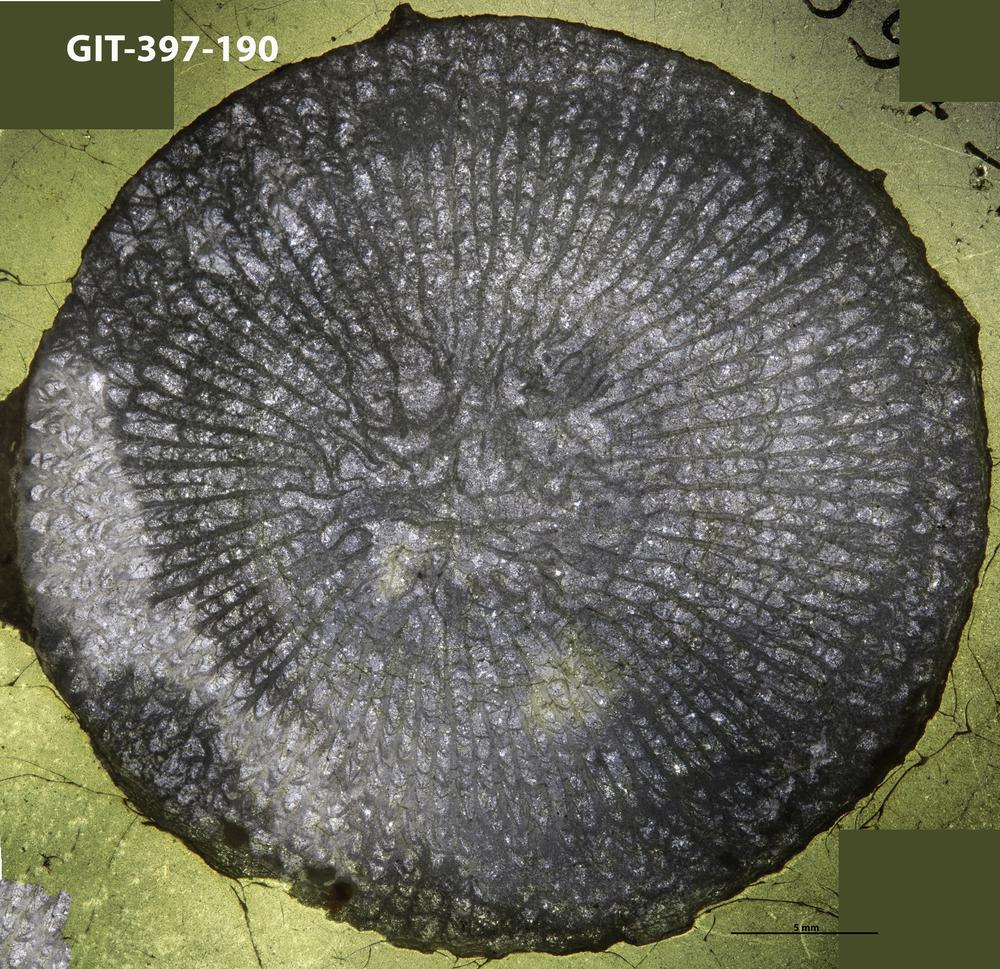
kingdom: Animalia
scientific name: Animalia
